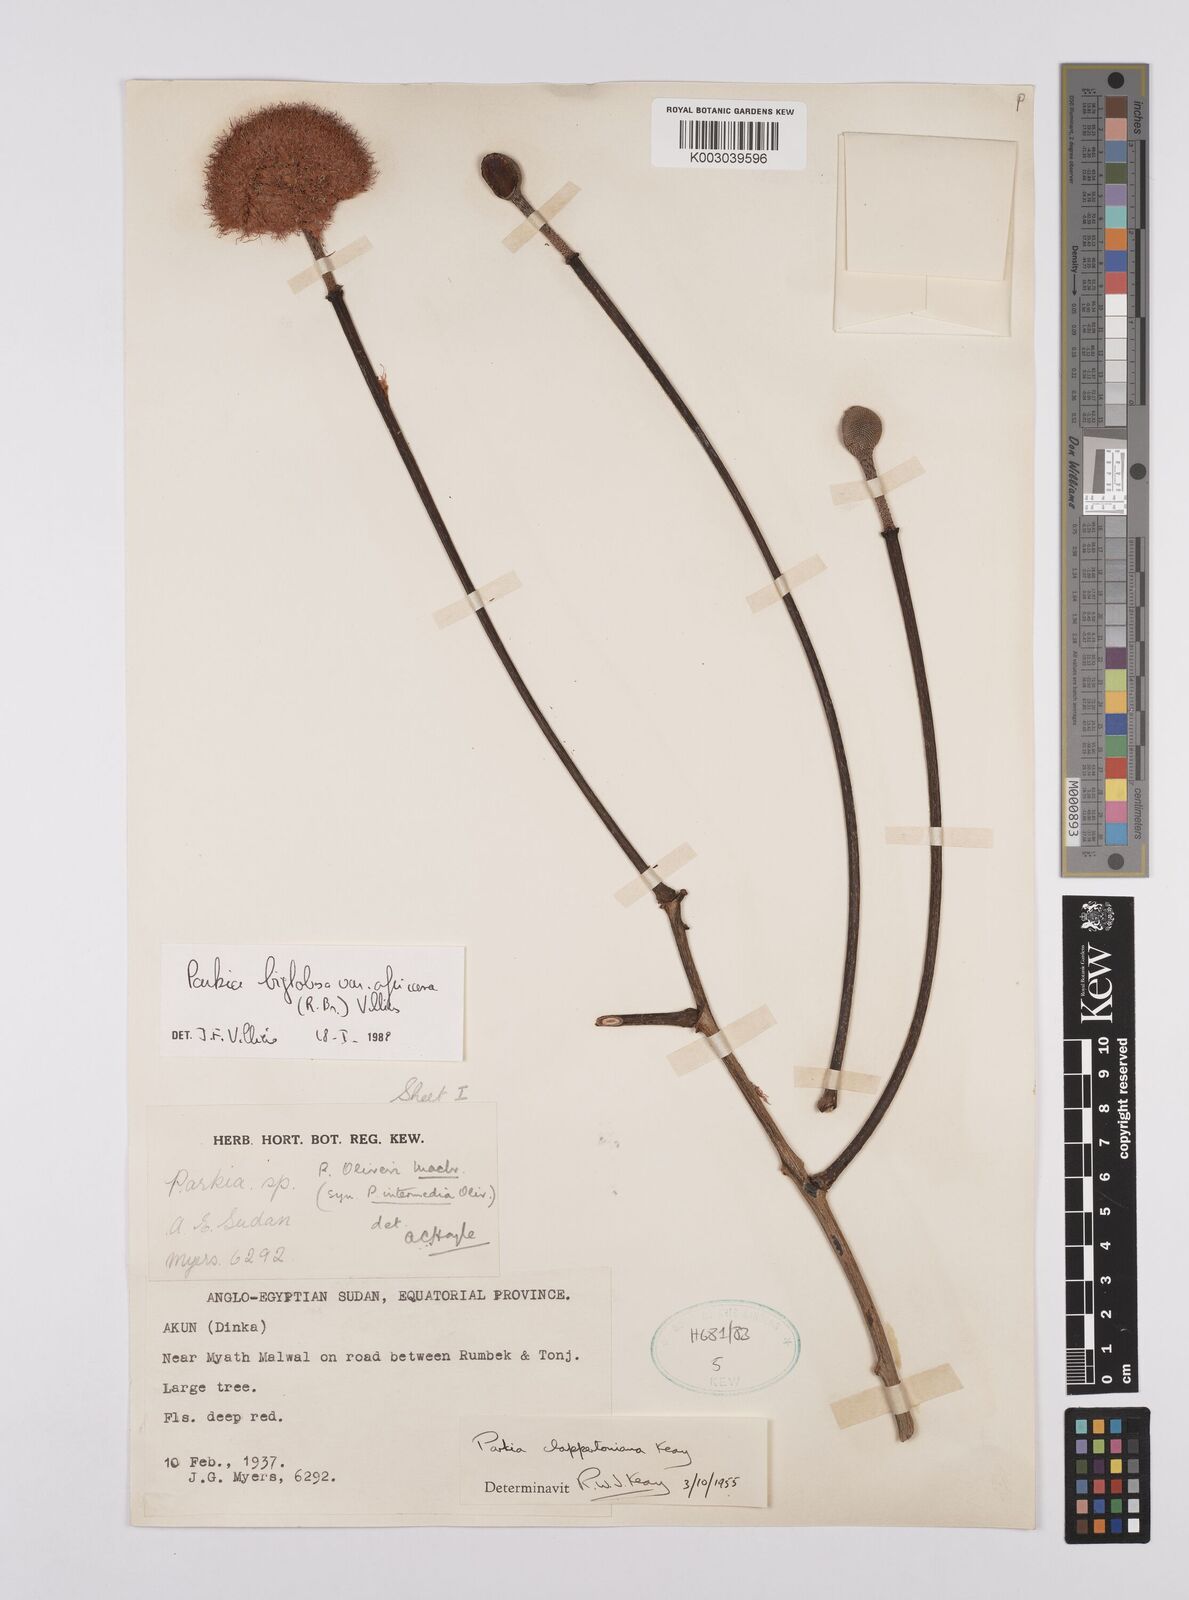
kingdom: Plantae
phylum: Tracheophyta
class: Magnoliopsida
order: Fabales
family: Fabaceae
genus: Parkia
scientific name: Parkia biglobosa
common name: African locust-bean
